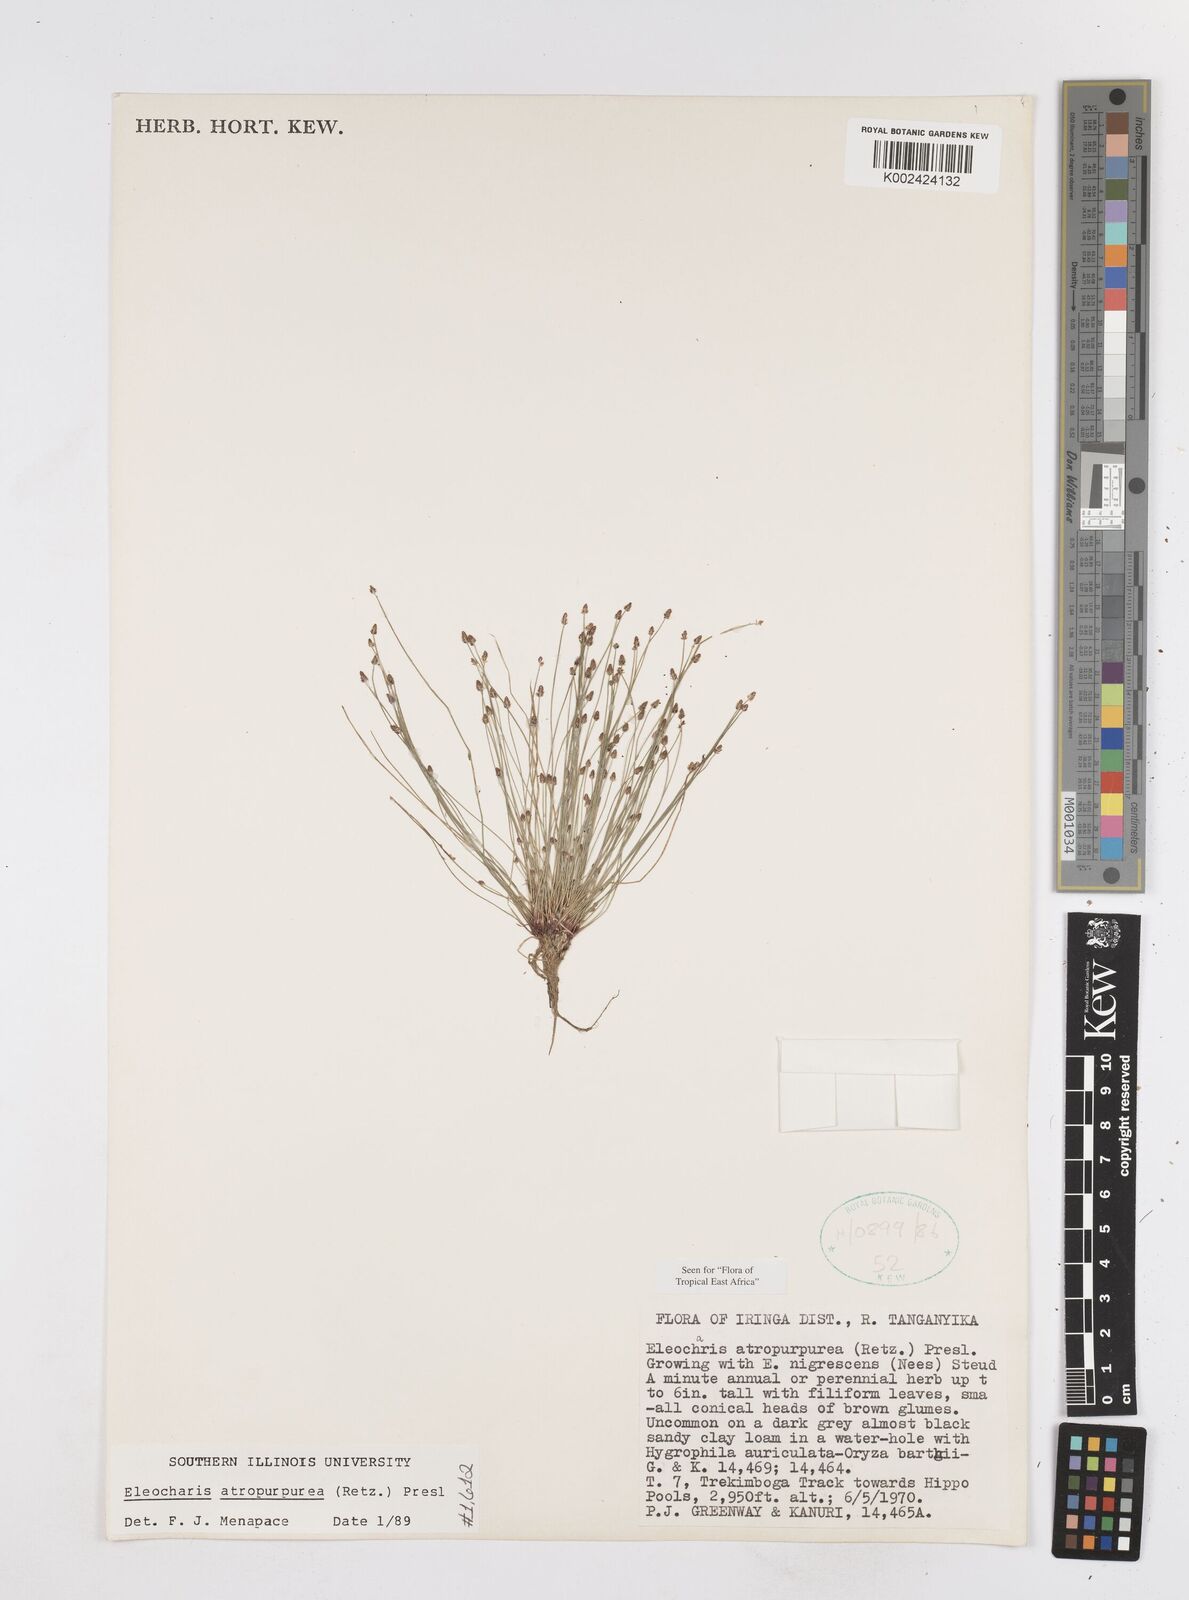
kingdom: Plantae
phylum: Tracheophyta
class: Liliopsida
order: Poales
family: Cyperaceae
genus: Eleocharis
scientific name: Eleocharis atropurpurea
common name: Purple spikerush
